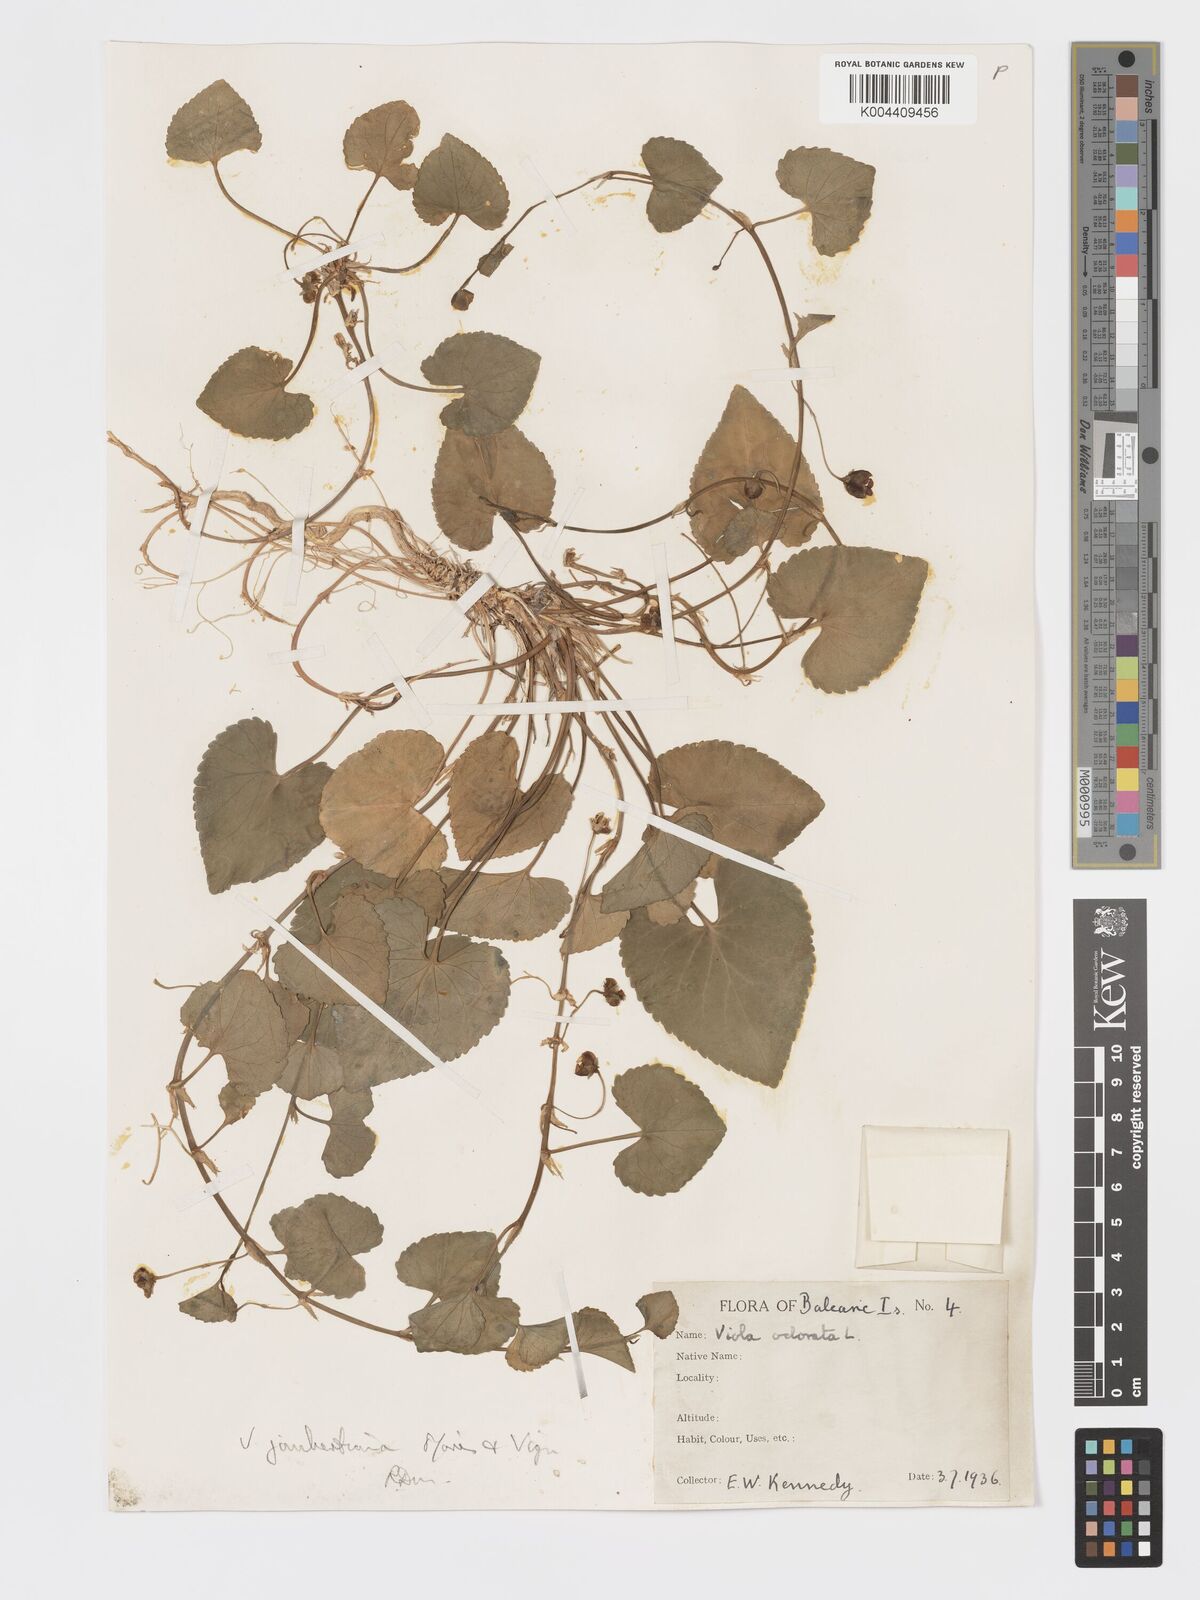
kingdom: Plantae
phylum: Tracheophyta
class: Magnoliopsida
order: Malpighiales
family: Violaceae
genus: Viola
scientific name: Viola jaubertiana
